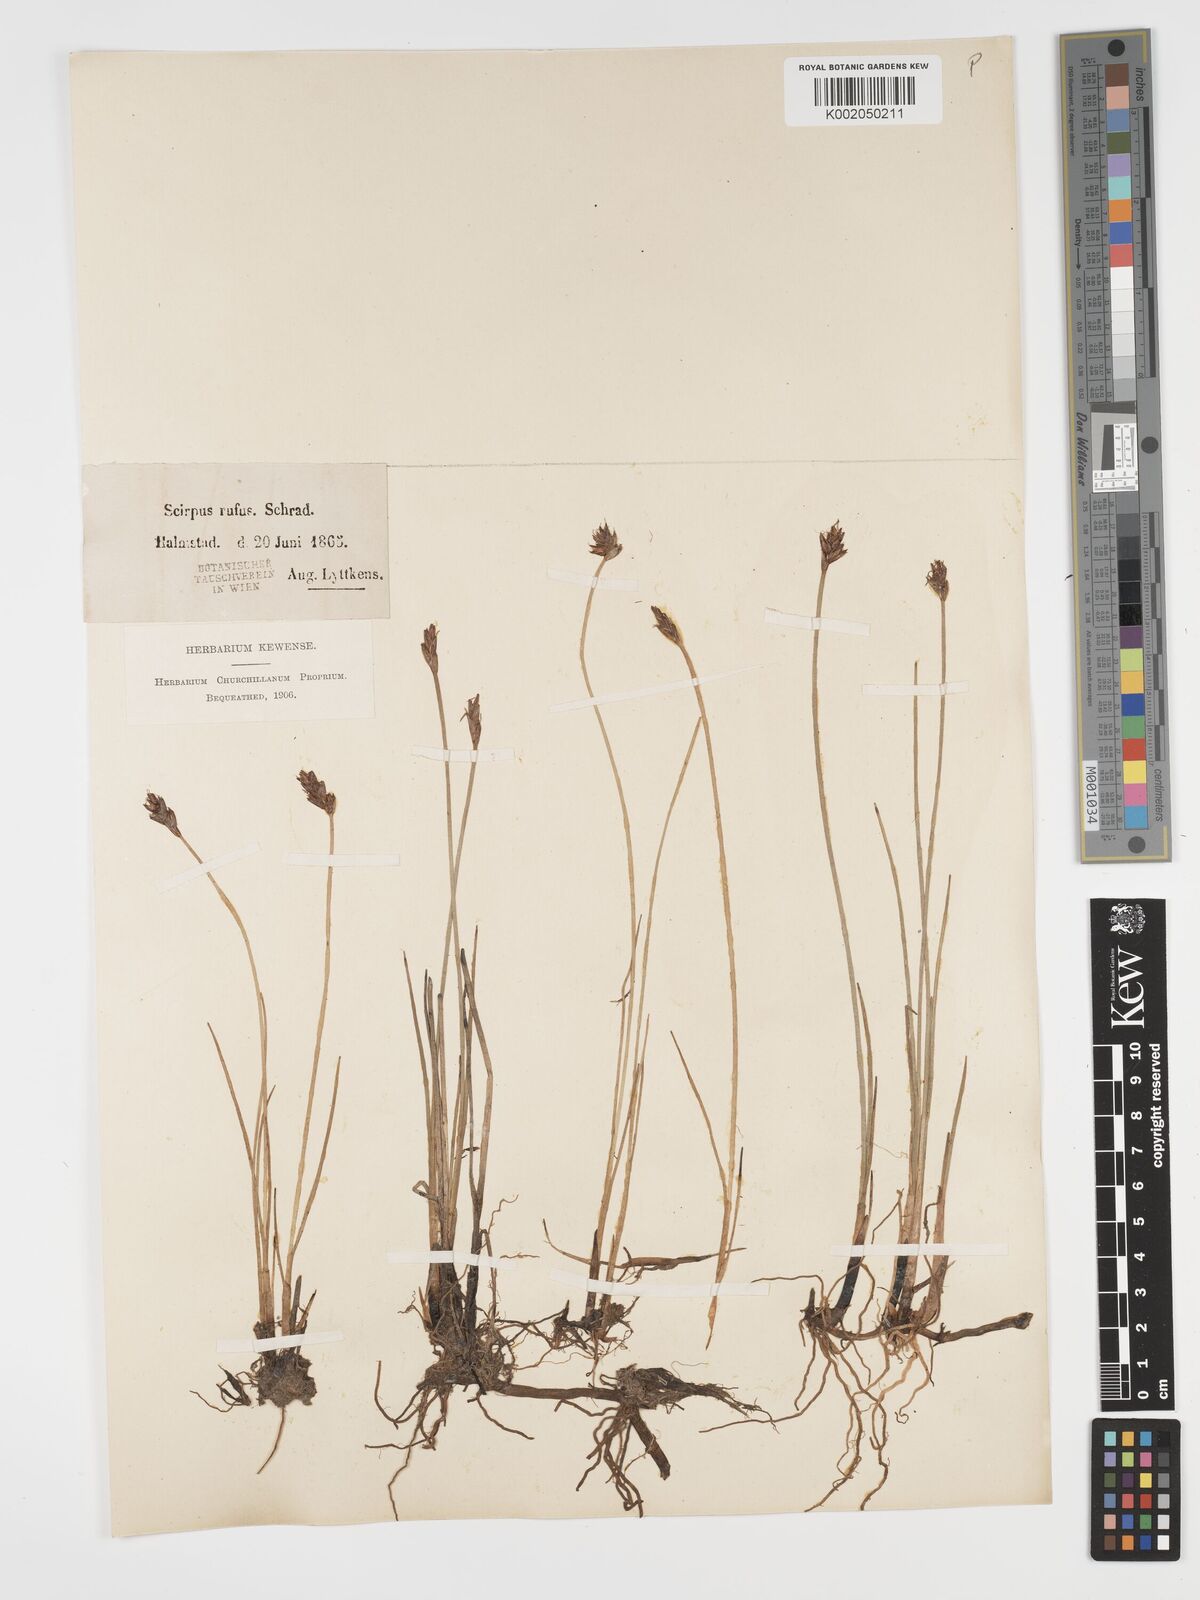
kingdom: Plantae
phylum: Tracheophyta
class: Liliopsida
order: Poales
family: Cyperaceae
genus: Blysmus
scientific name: Blysmus rufus
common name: Saltmarsh flat-sedge
